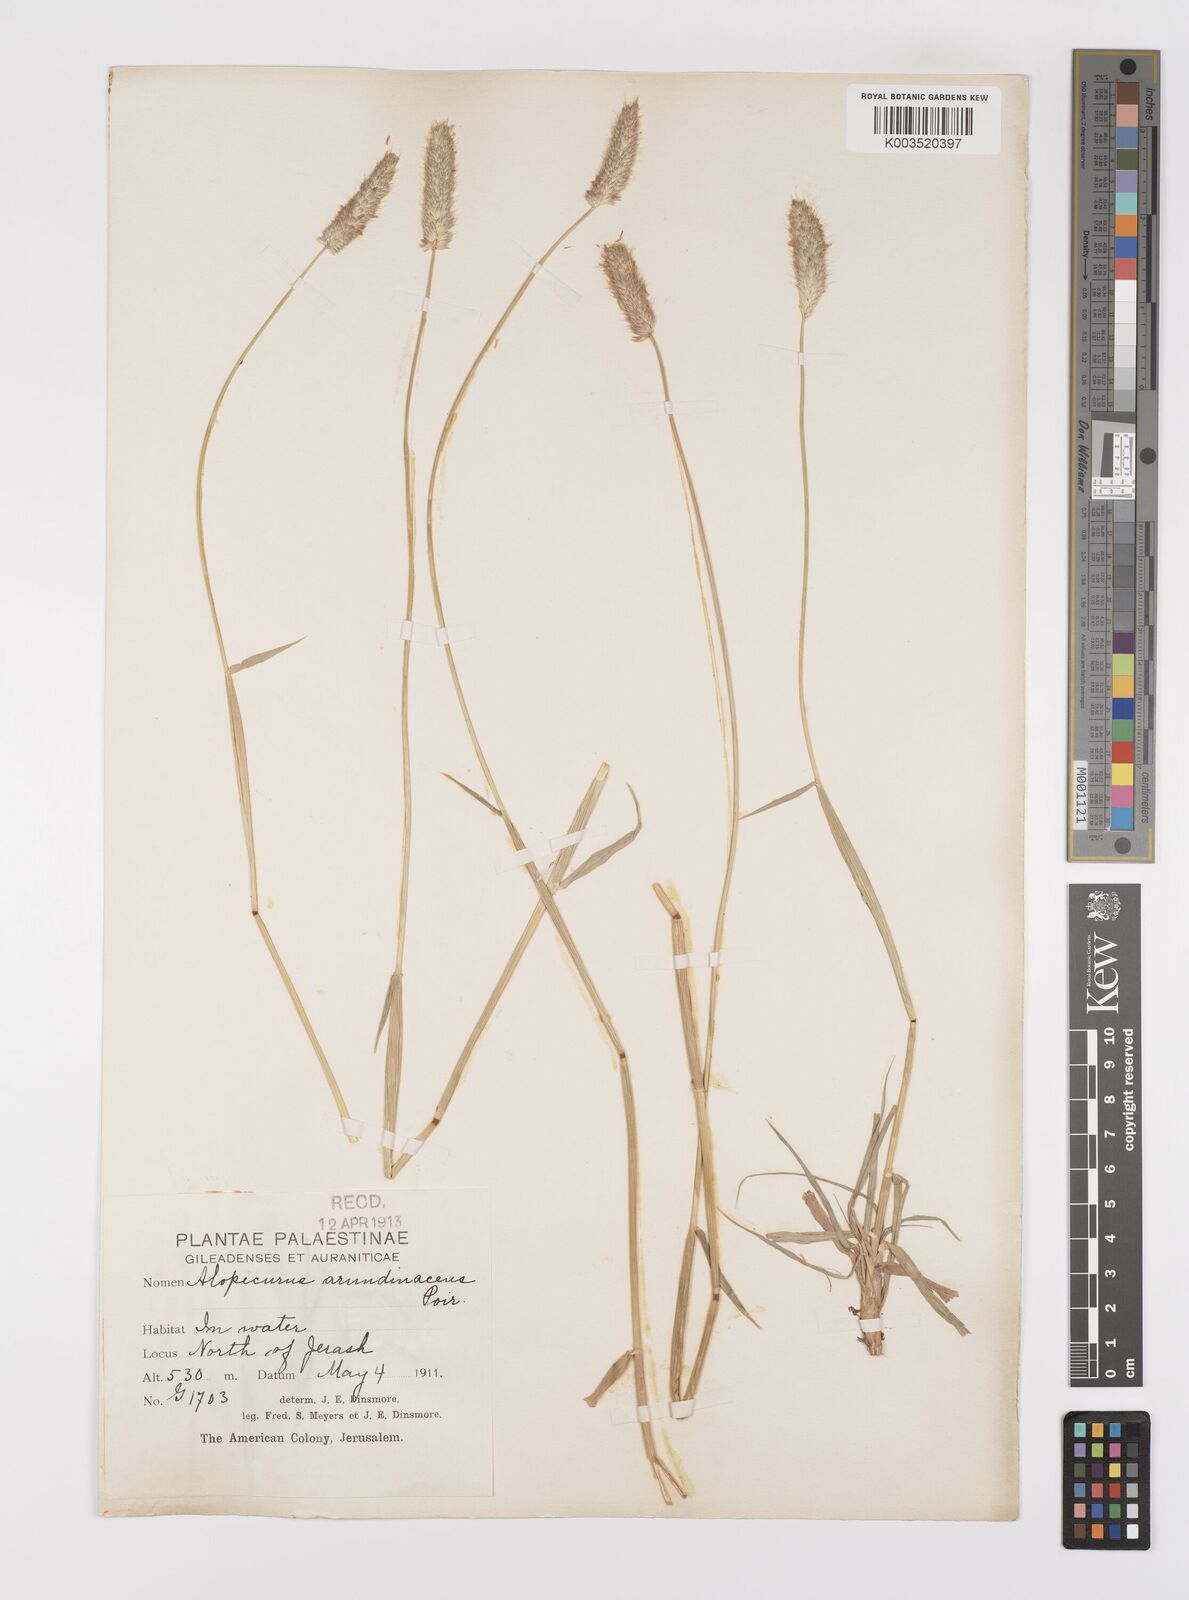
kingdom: Plantae
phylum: Tracheophyta
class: Liliopsida
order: Poales
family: Poaceae
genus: Alopecurus
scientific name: Alopecurus arundinaceus
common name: Creeping meadow foxtail
